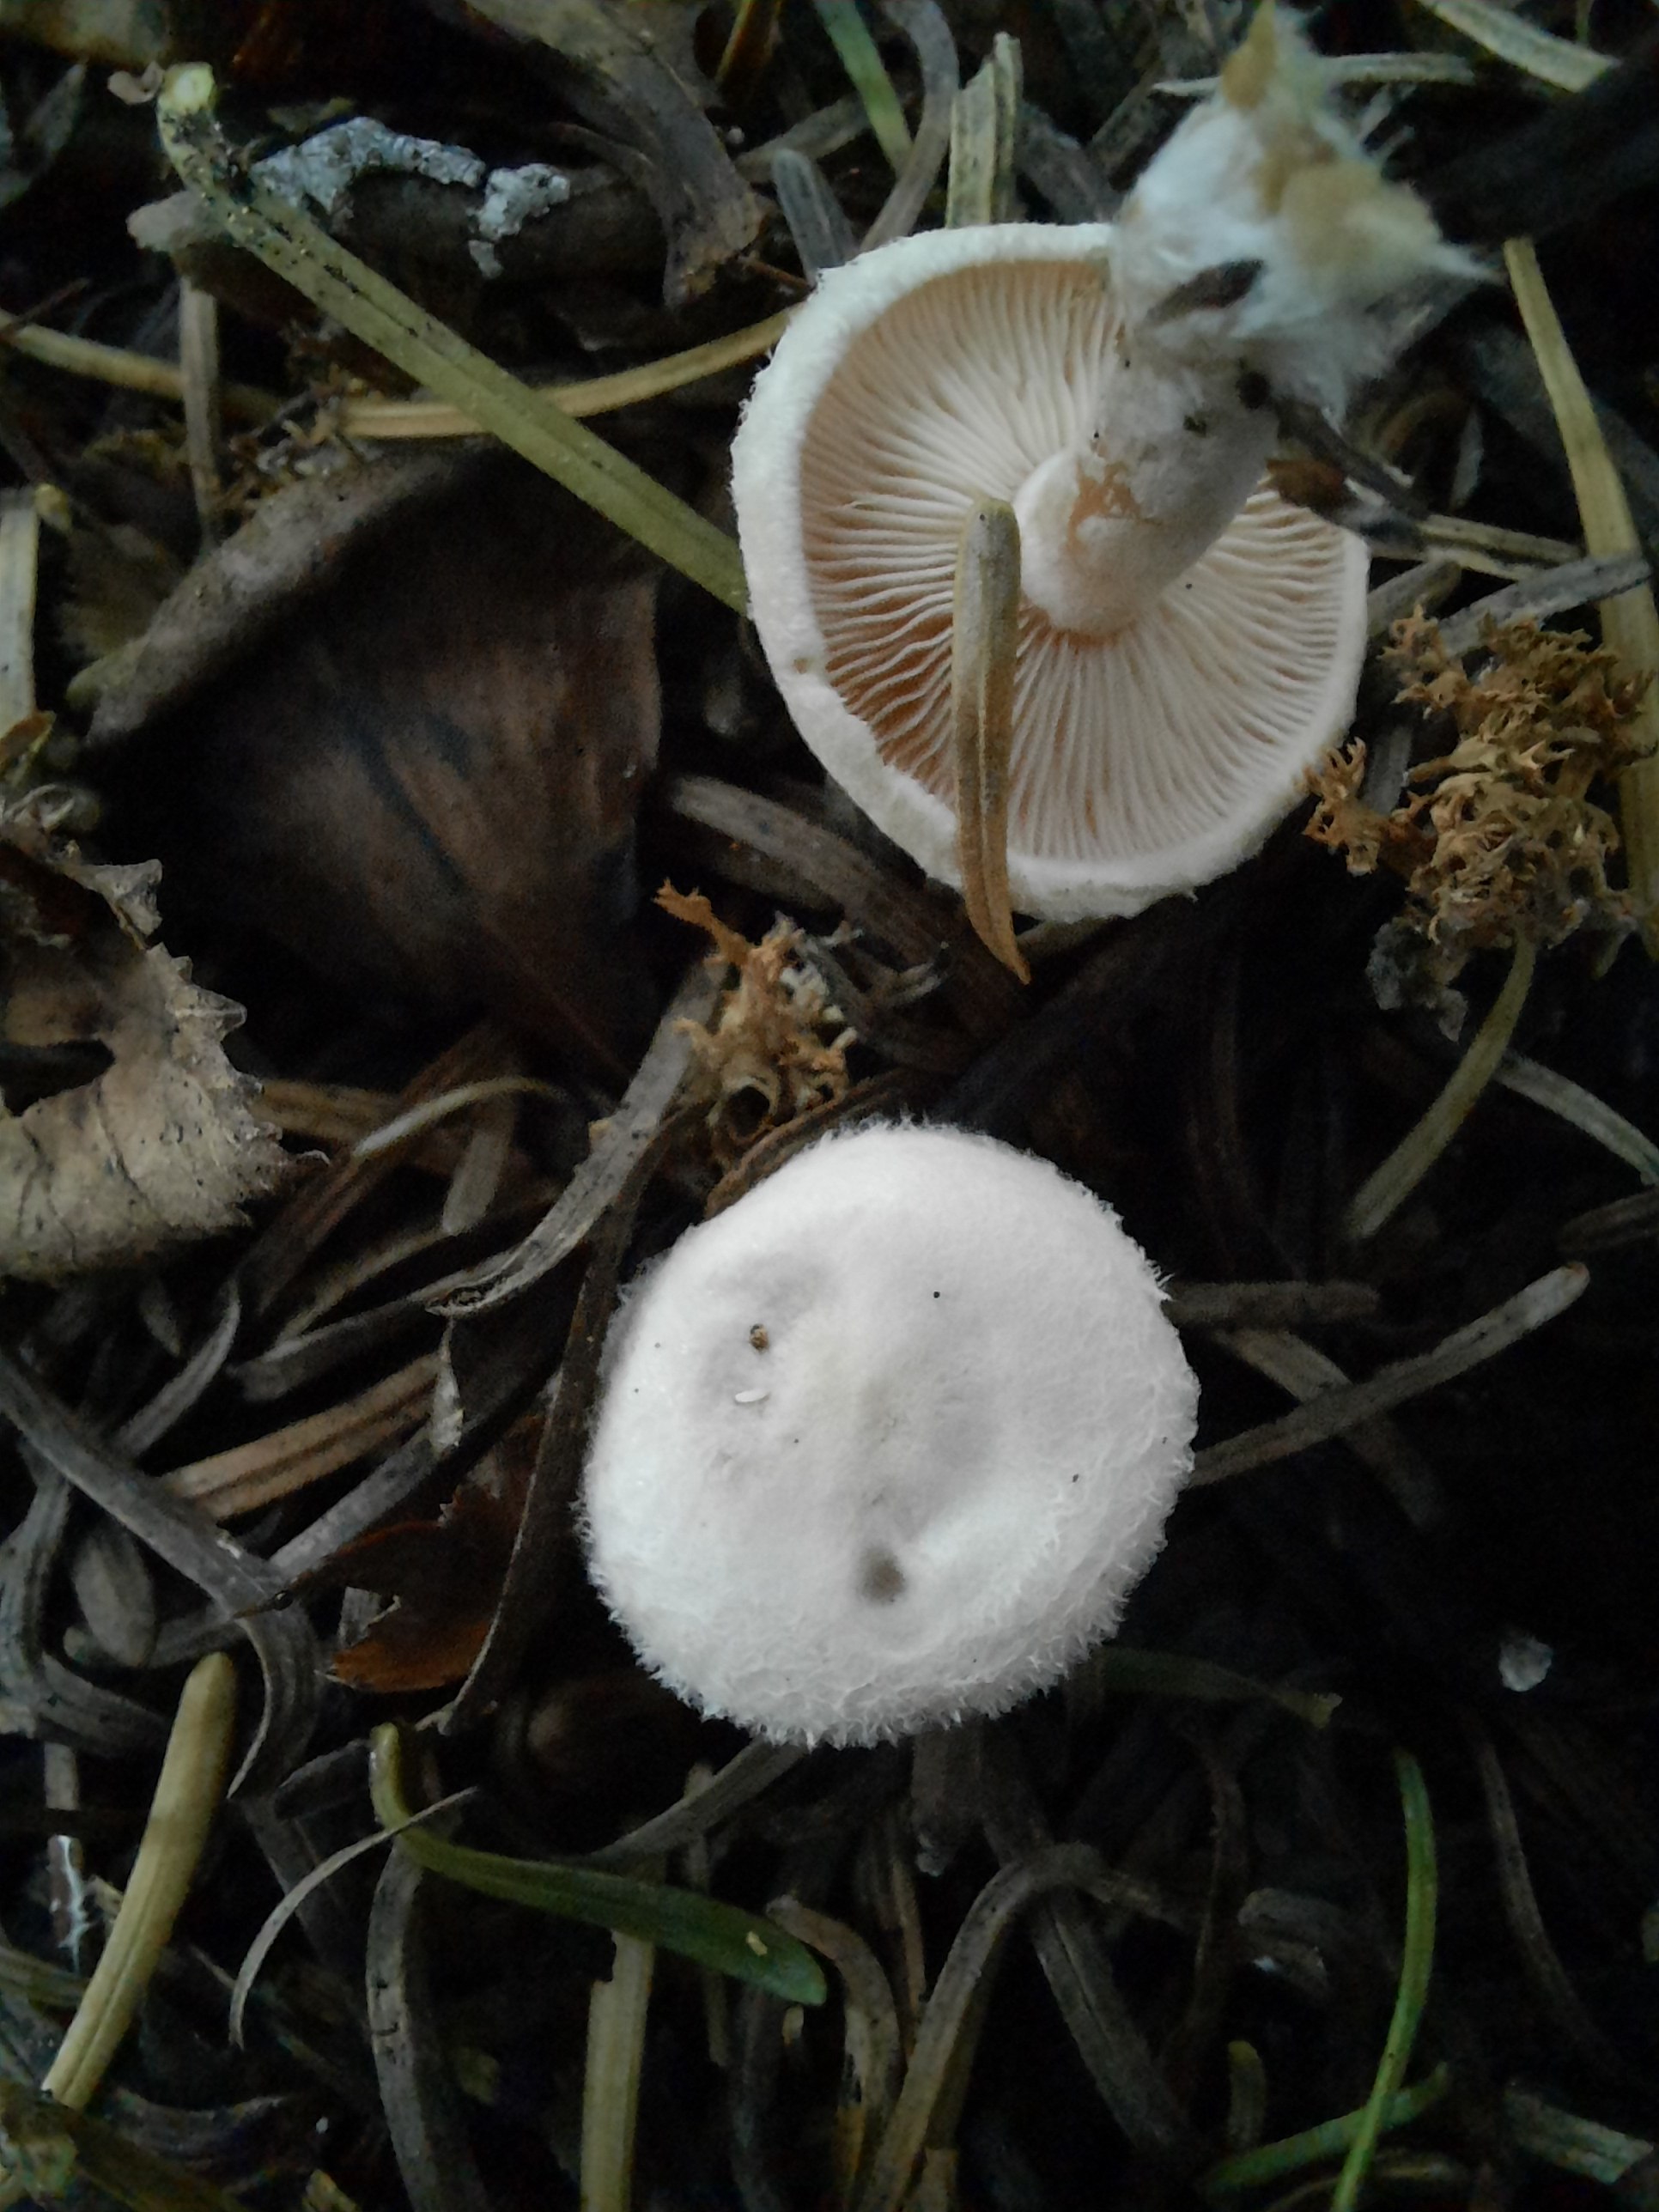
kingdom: Fungi
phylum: Basidiomycota
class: Agaricomycetes
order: Agaricales
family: Tricholomataceae
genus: Ripartites
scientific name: Ripartites tricholoma
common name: almindelig skæghat
